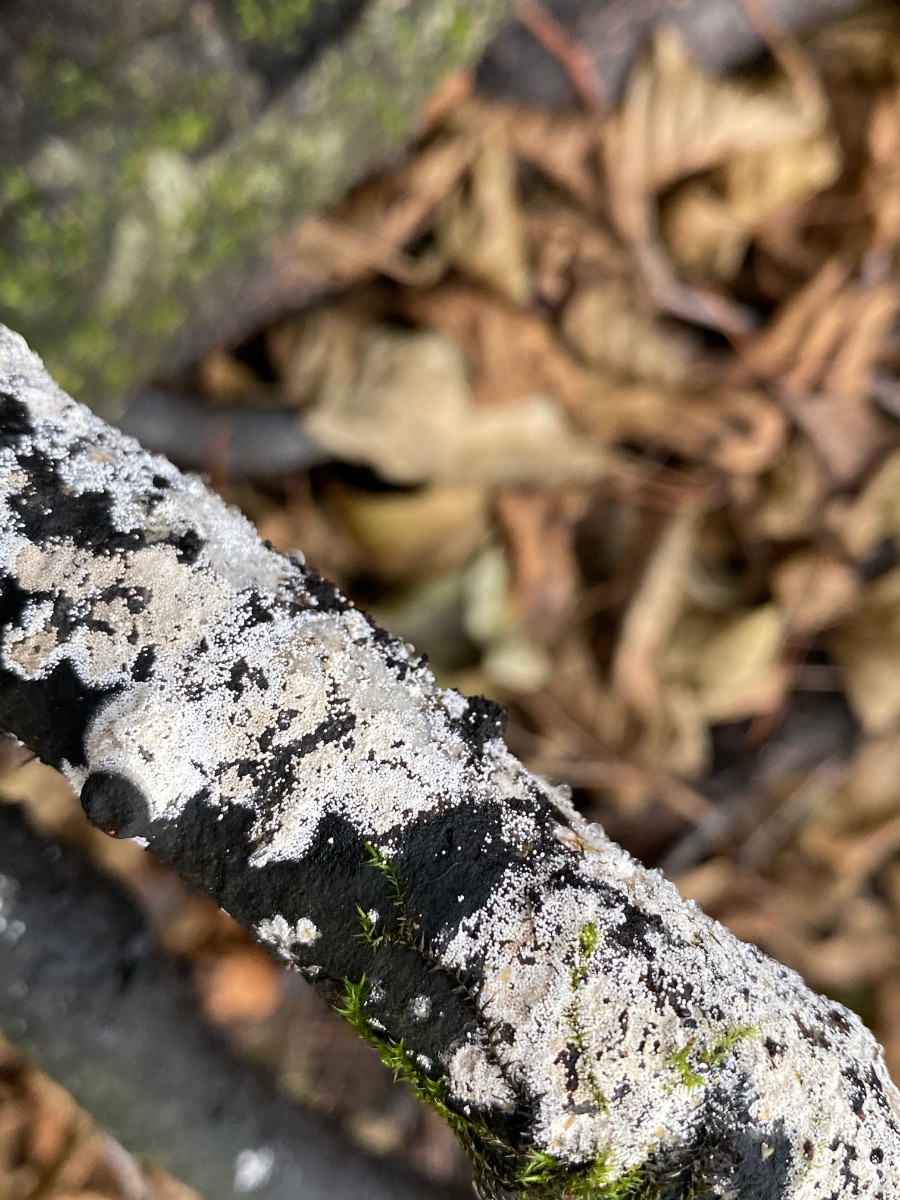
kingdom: Fungi
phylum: Basidiomycota
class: Agaricomycetes
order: Trechisporales
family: Hydnodontaceae
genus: Subulicystidium
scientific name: Subulicystidium longisporum
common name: almindelig pigtrådshinde
